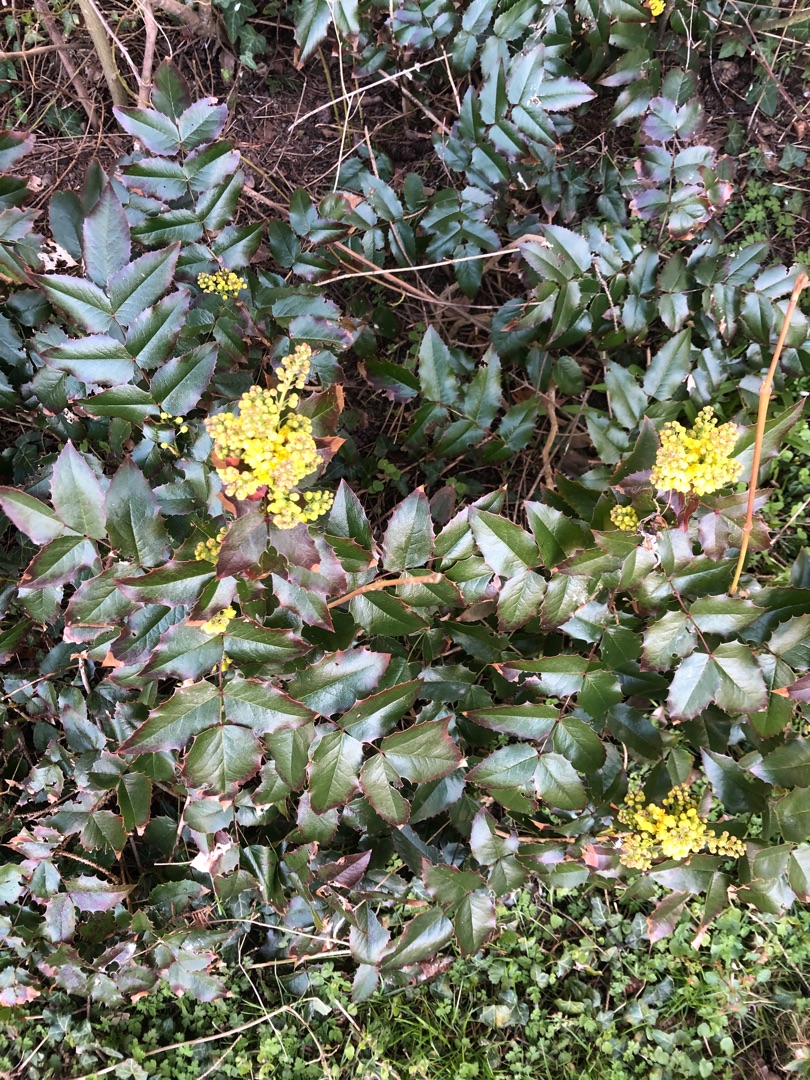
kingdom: Plantae
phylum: Tracheophyta
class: Magnoliopsida
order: Ranunculales
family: Berberidaceae
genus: Mahonia
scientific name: Mahonia aquifolium
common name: Almindelig mahonie
